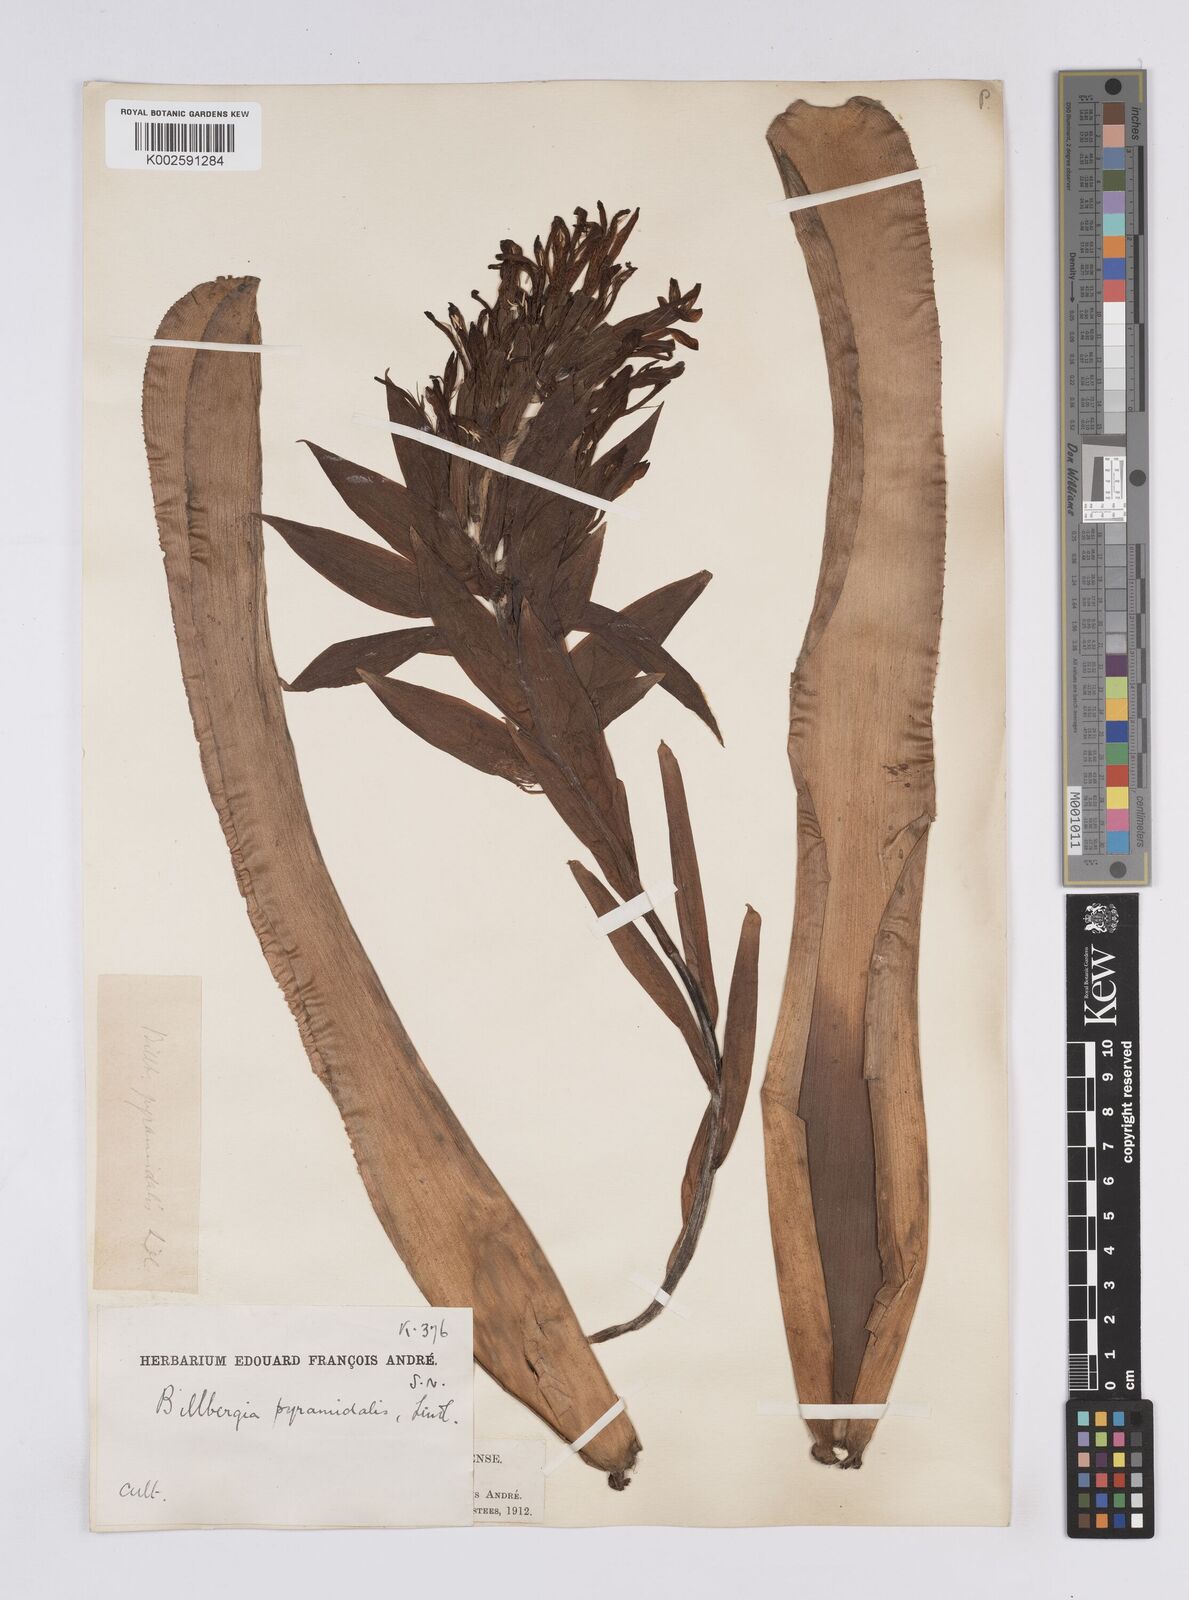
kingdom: Plantae
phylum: Tracheophyta
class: Liliopsida
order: Poales
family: Bromeliaceae
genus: Billbergia
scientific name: Billbergia pyramidalis
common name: Foolproofplant
